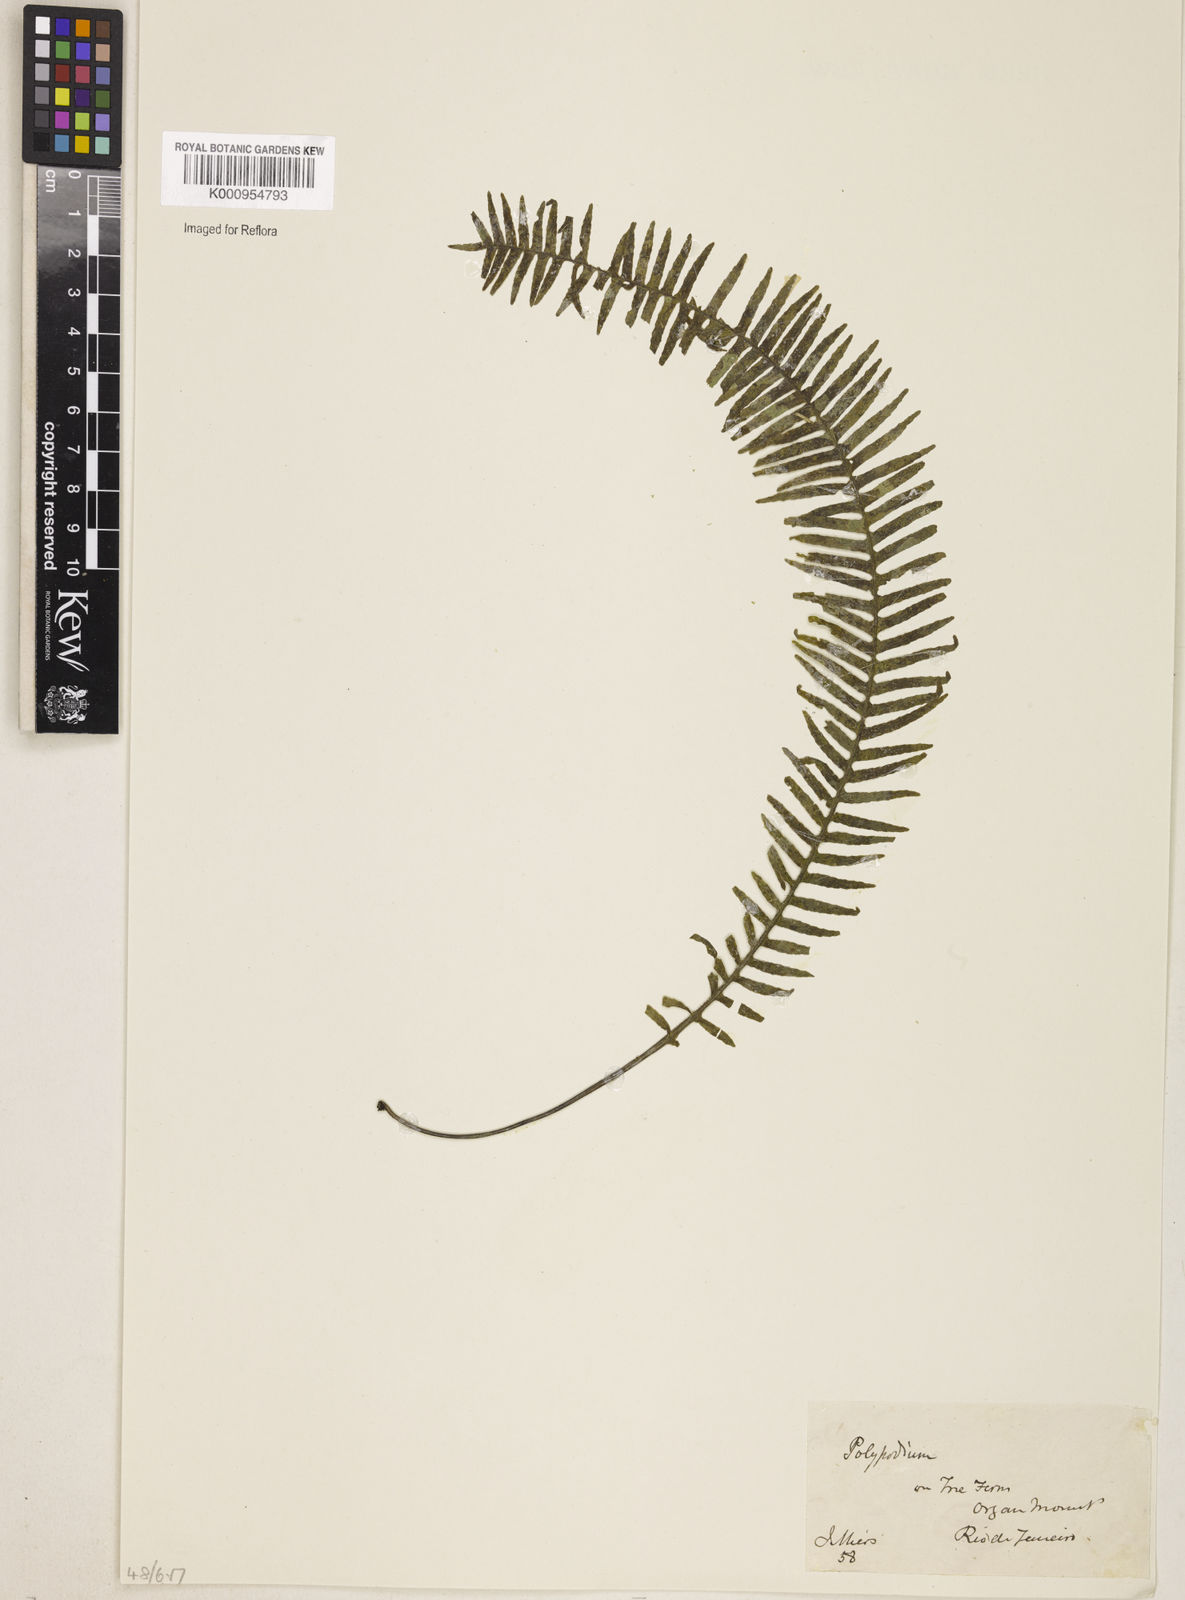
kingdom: Plantae
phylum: Tracheophyta
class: Polypodiopsida
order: Polypodiales
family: Polypodiaceae
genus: Pecluma
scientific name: Pecluma
